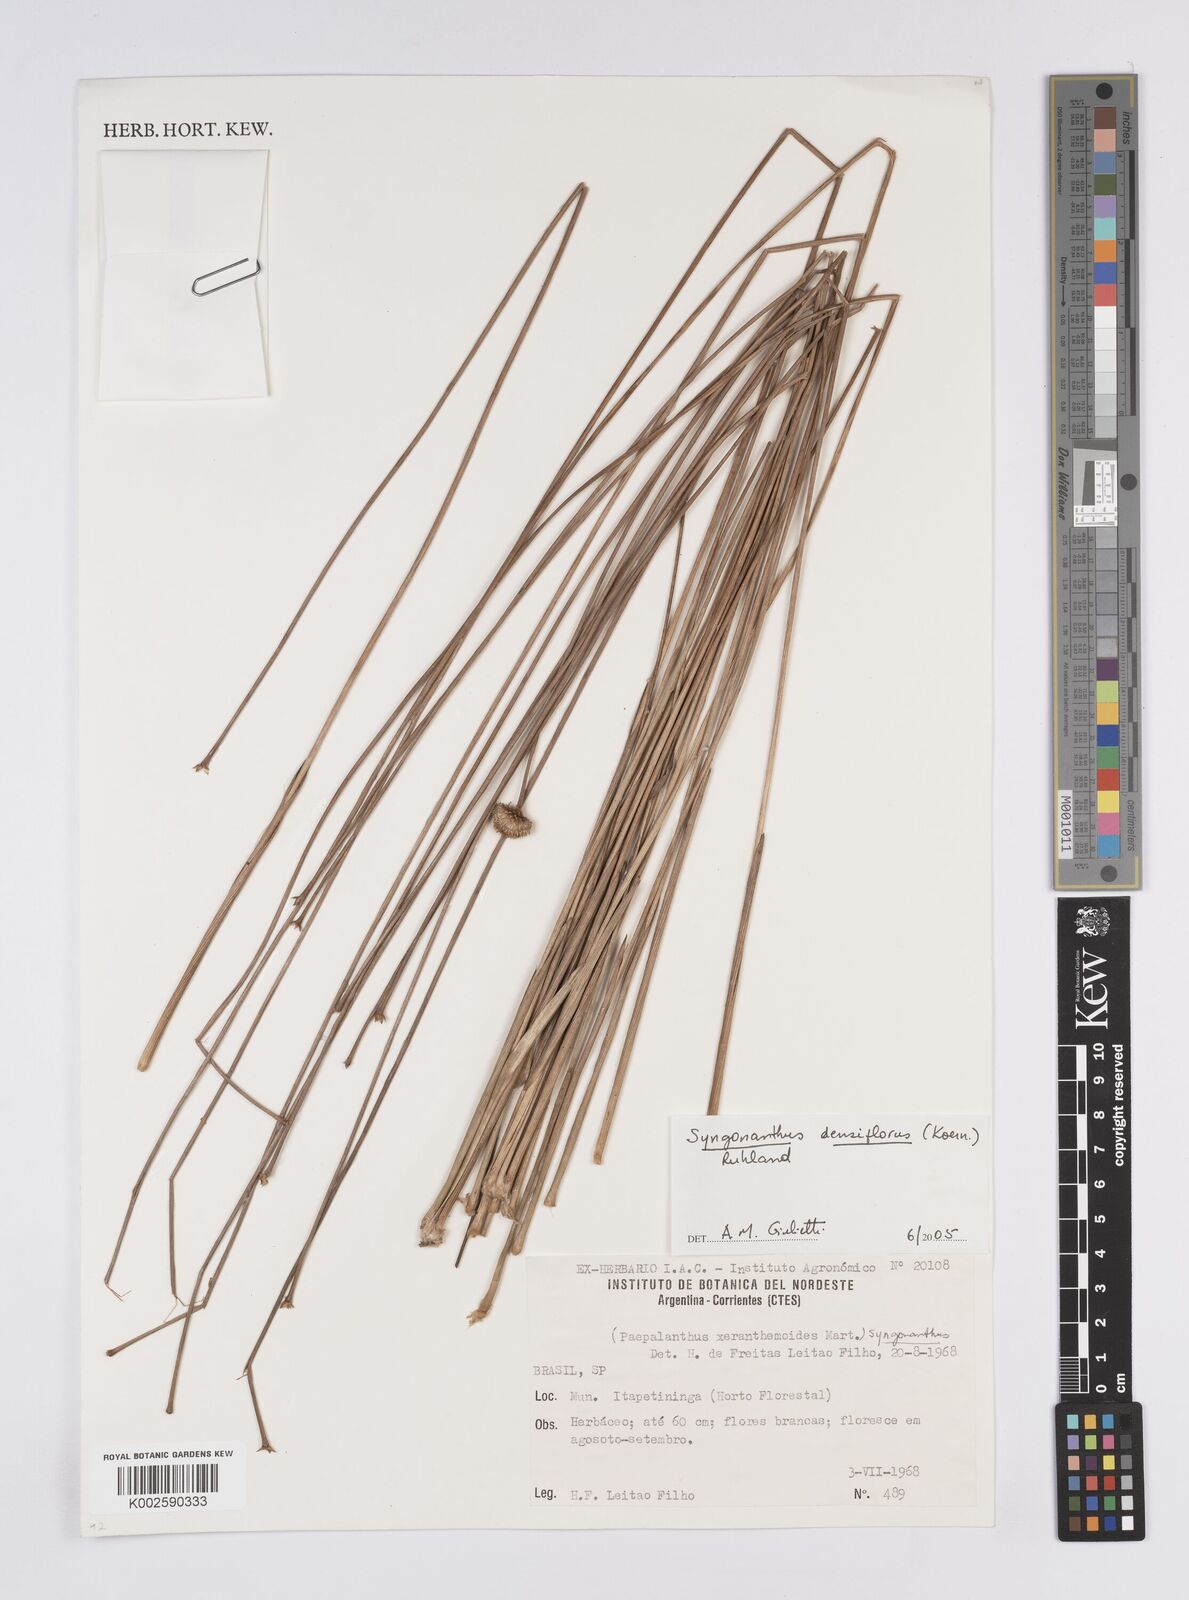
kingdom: Plantae
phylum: Tracheophyta
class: Liliopsida
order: Poales
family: Eriocaulaceae
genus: Syngonanthus
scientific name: Syngonanthus densiflorus
